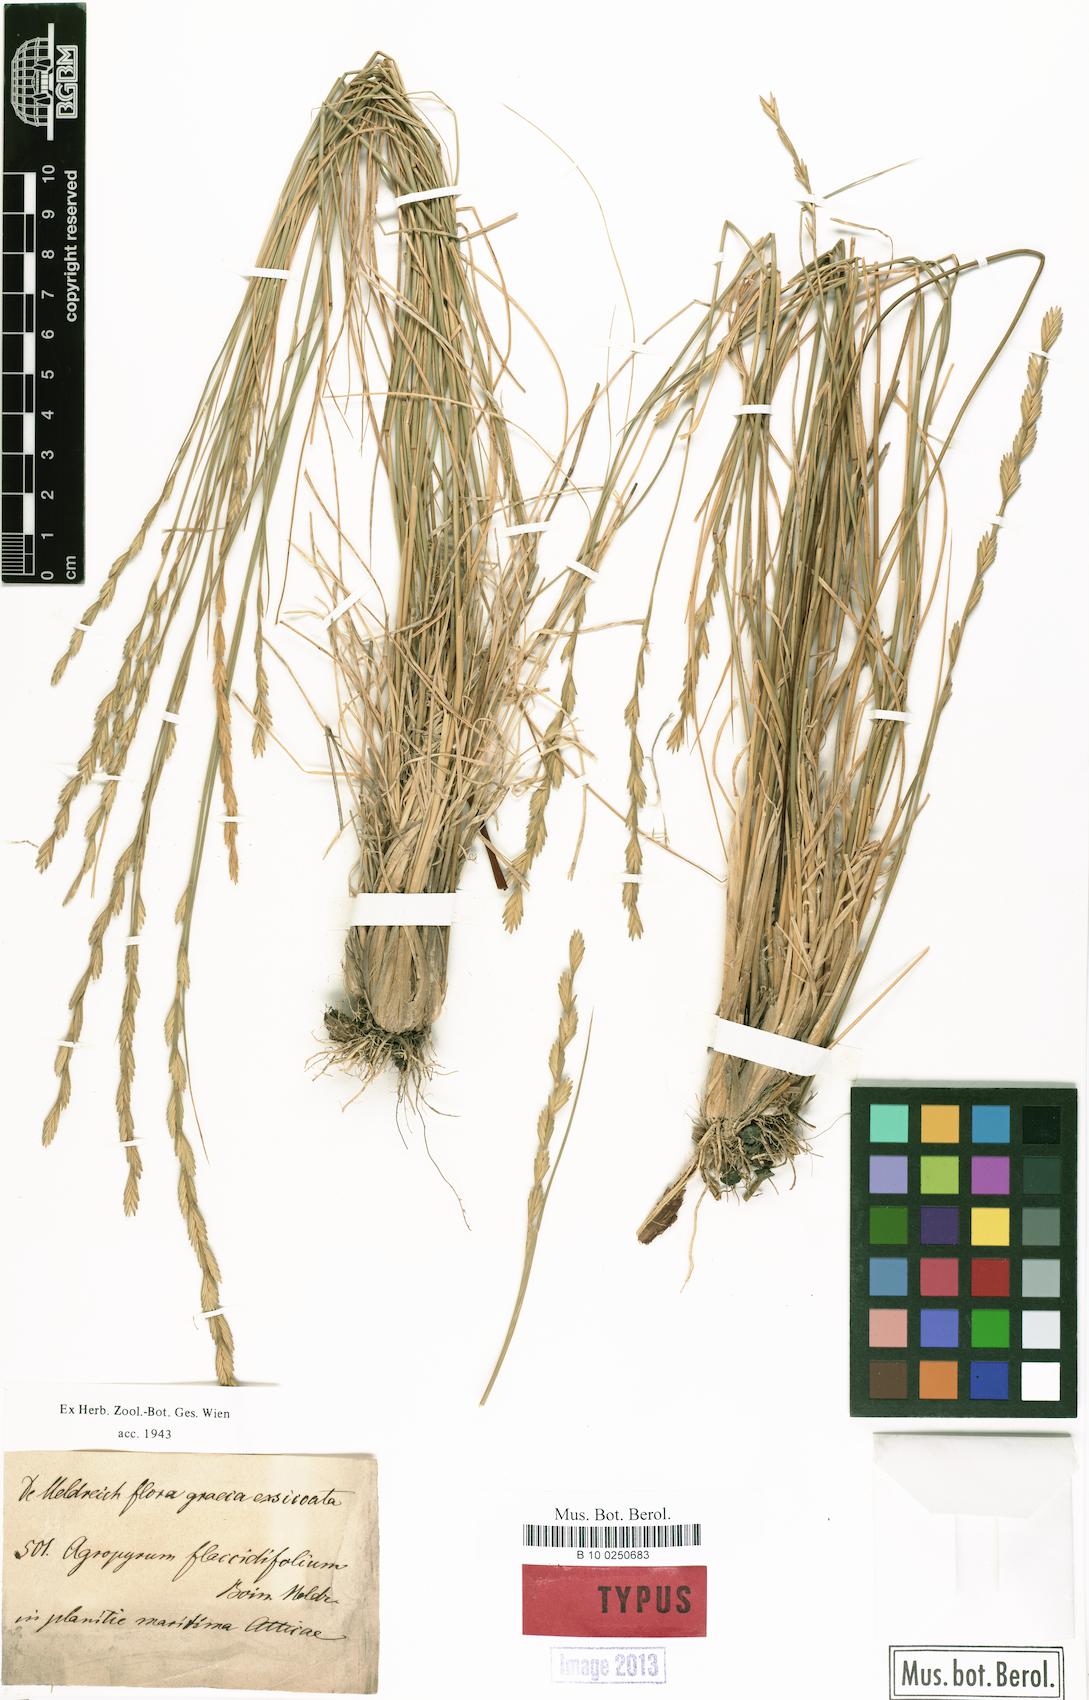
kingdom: Plantae
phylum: Tracheophyta
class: Liliopsida
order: Poales
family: Poaceae
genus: Agropyron
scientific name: Agropyron
